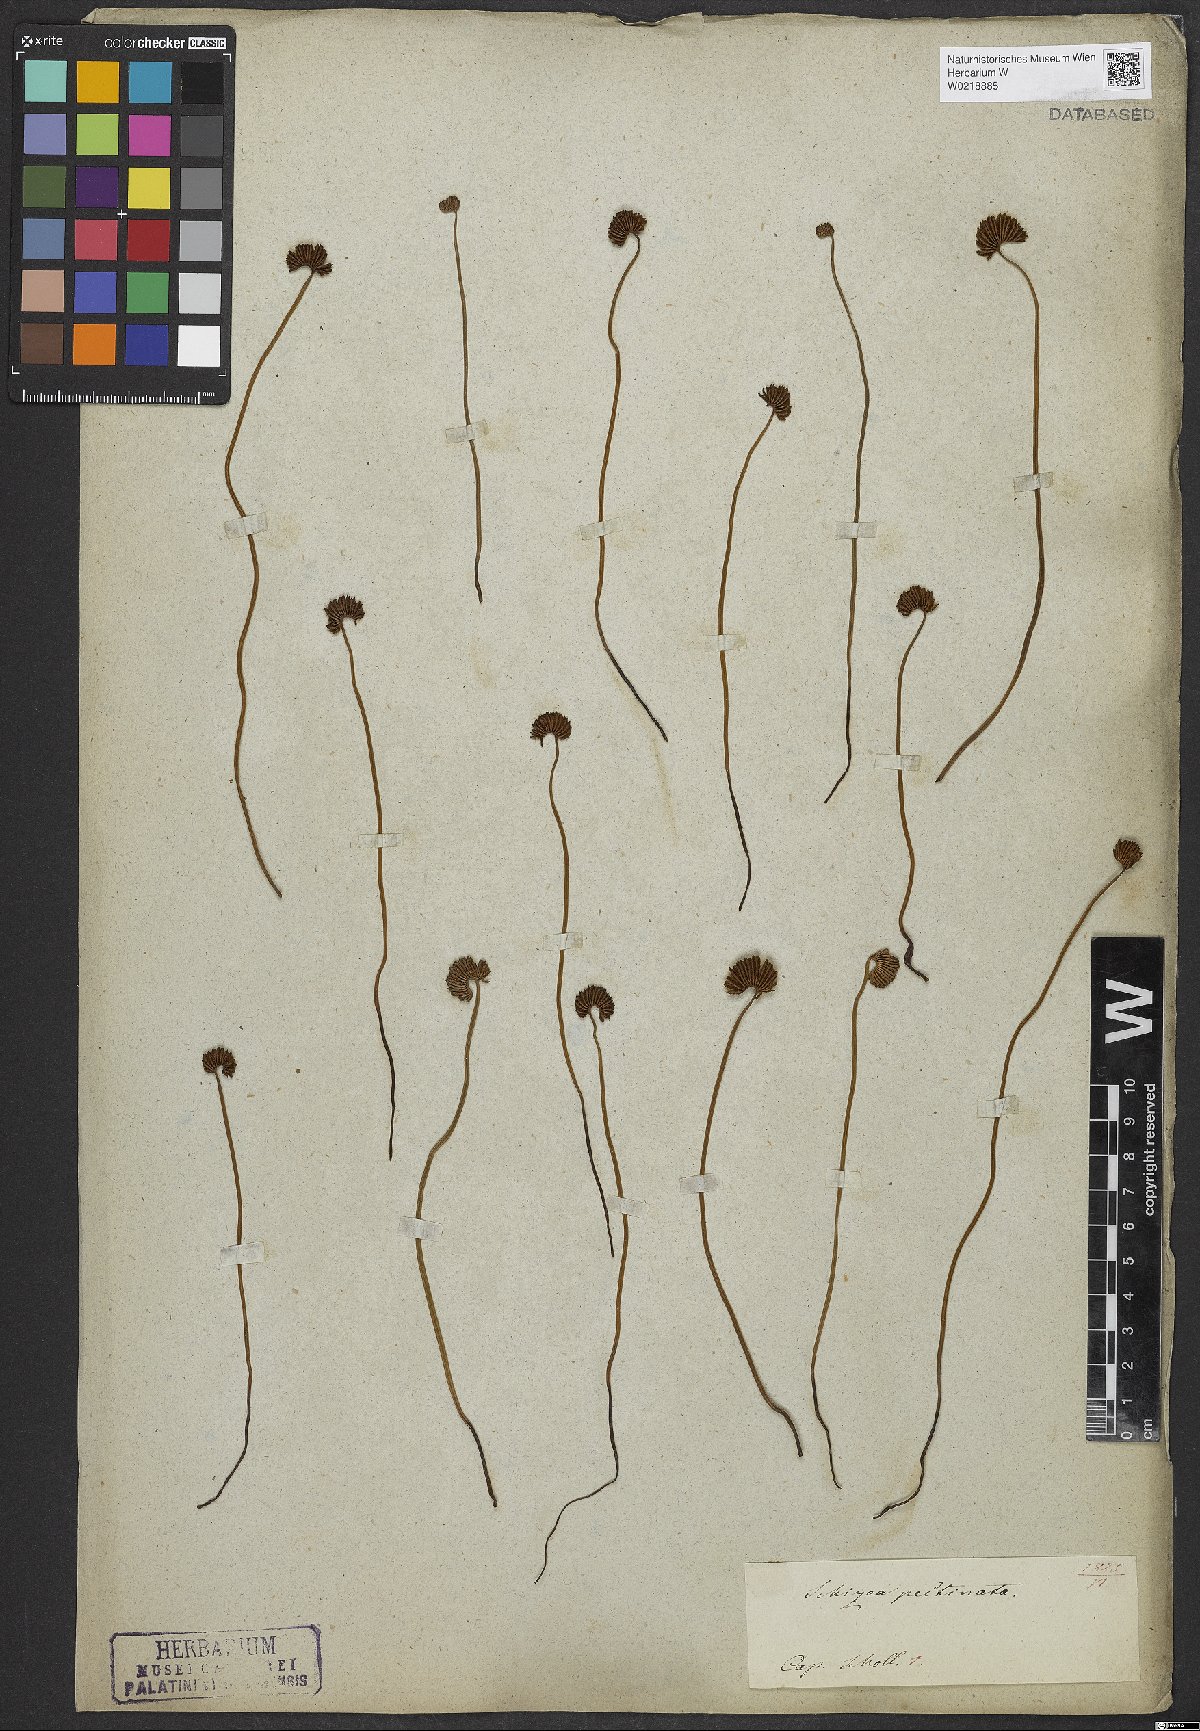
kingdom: Plantae
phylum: Tracheophyta
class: Polypodiopsida
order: Schizaeales
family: Schizaeaceae
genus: Schizaea
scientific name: Schizaea pectinata
